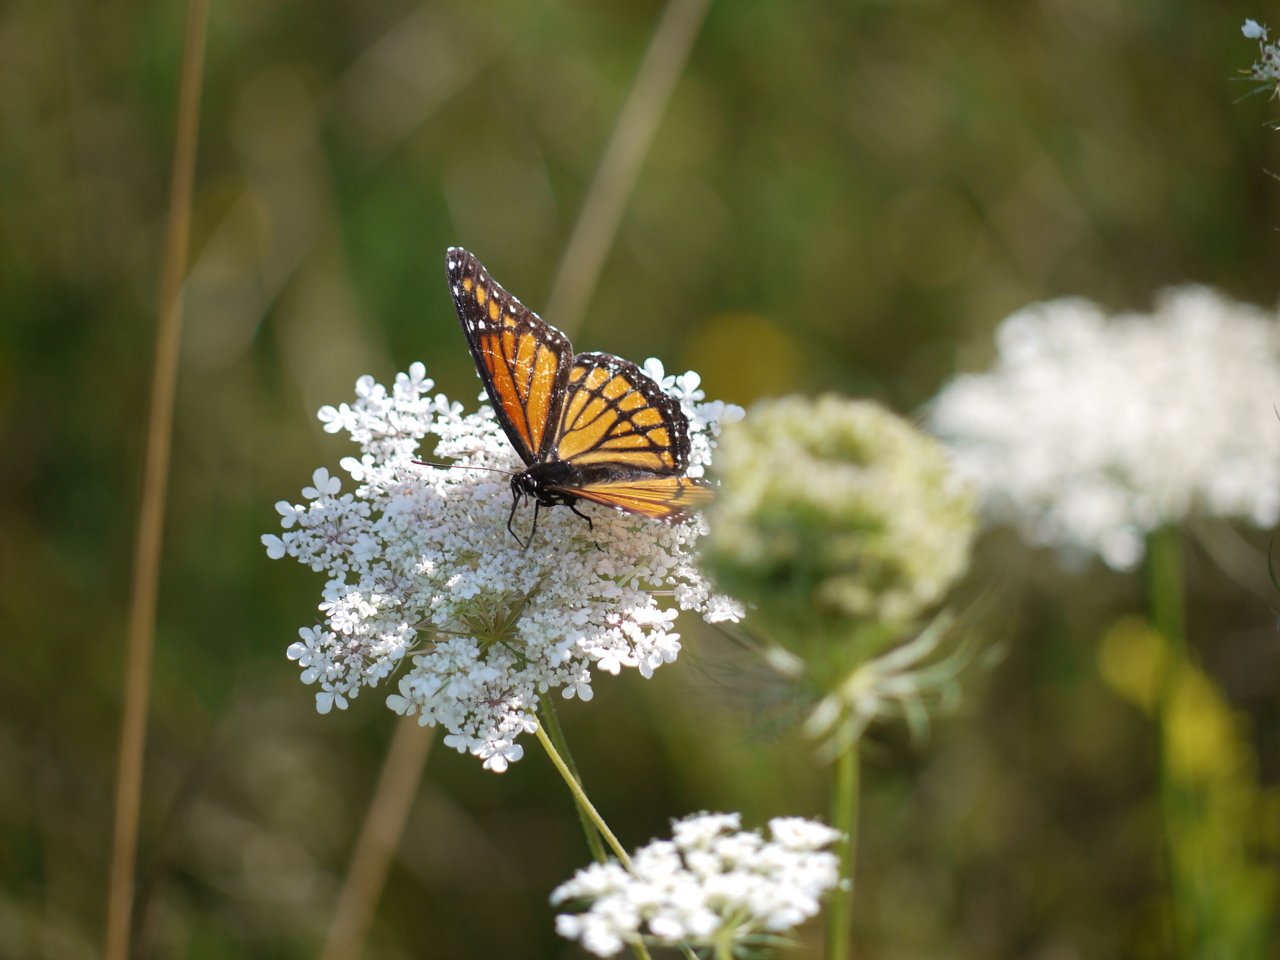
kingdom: Animalia
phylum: Arthropoda
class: Insecta
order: Lepidoptera
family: Nymphalidae
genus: Limenitis
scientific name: Limenitis archippus
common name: Viceroy
